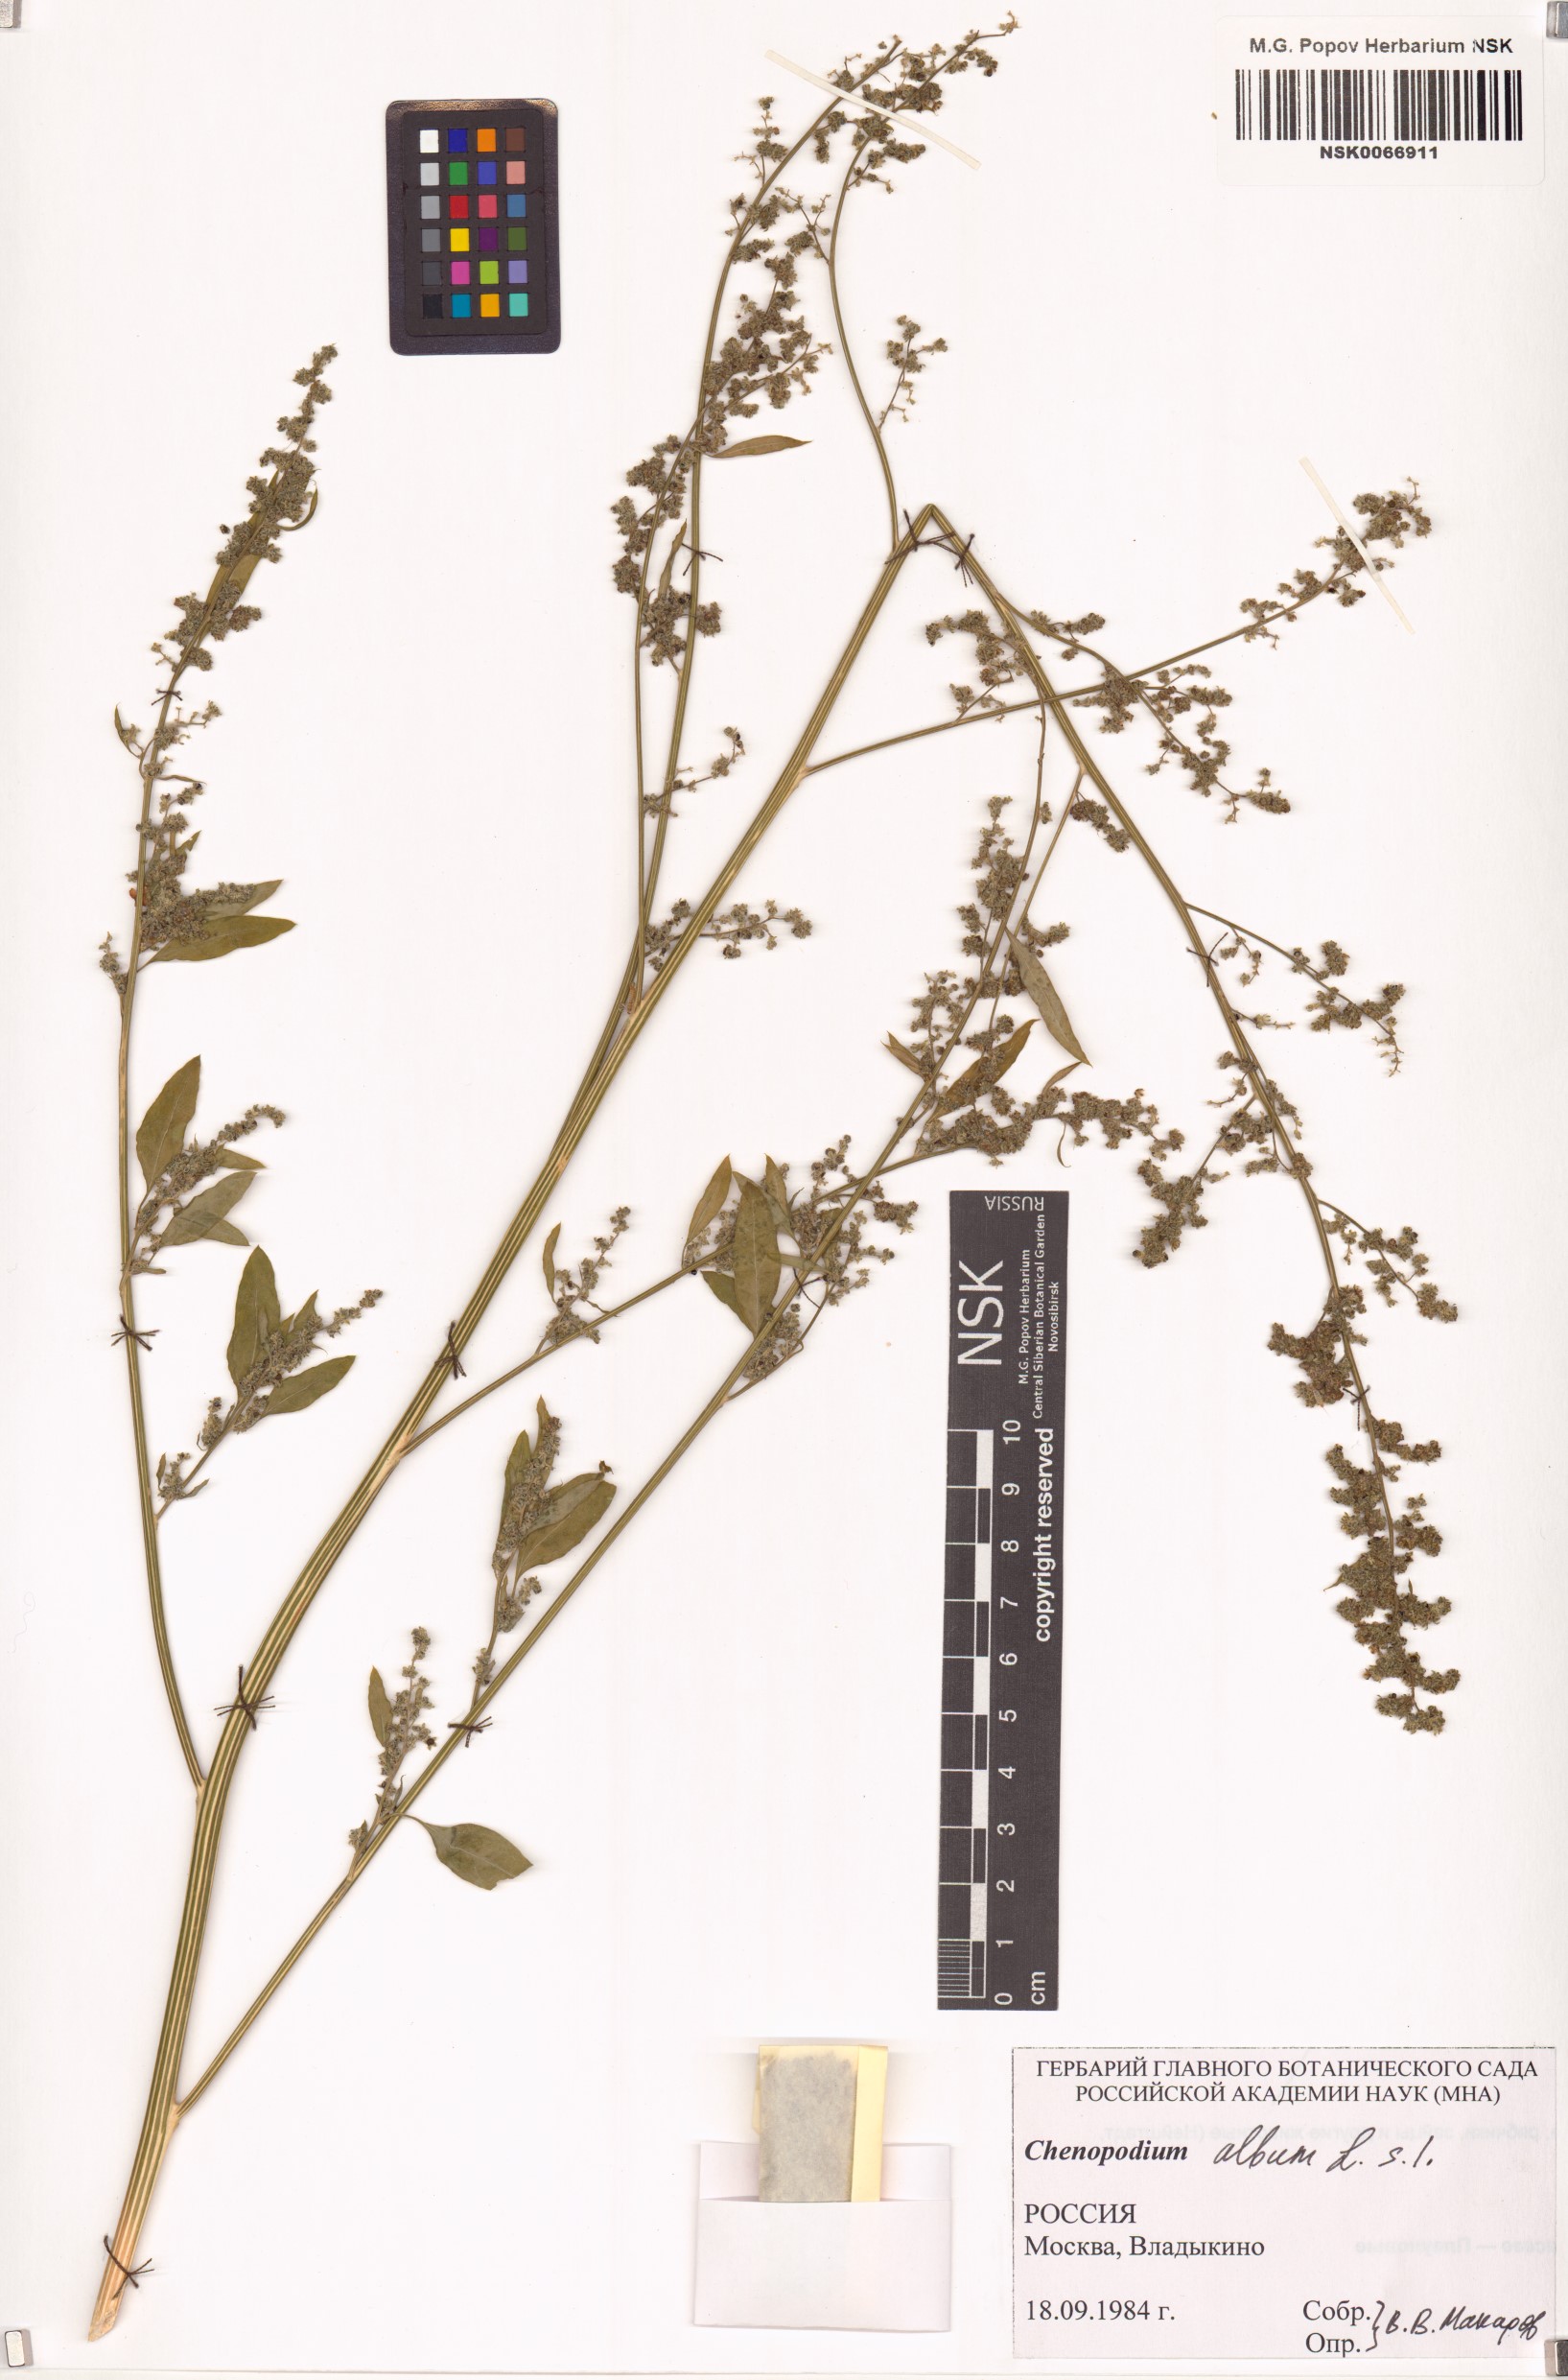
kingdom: Plantae
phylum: Tracheophyta
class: Magnoliopsida
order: Caryophyllales
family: Amaranthaceae
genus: Chenopodium
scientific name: Chenopodium album
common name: Fat-hen
